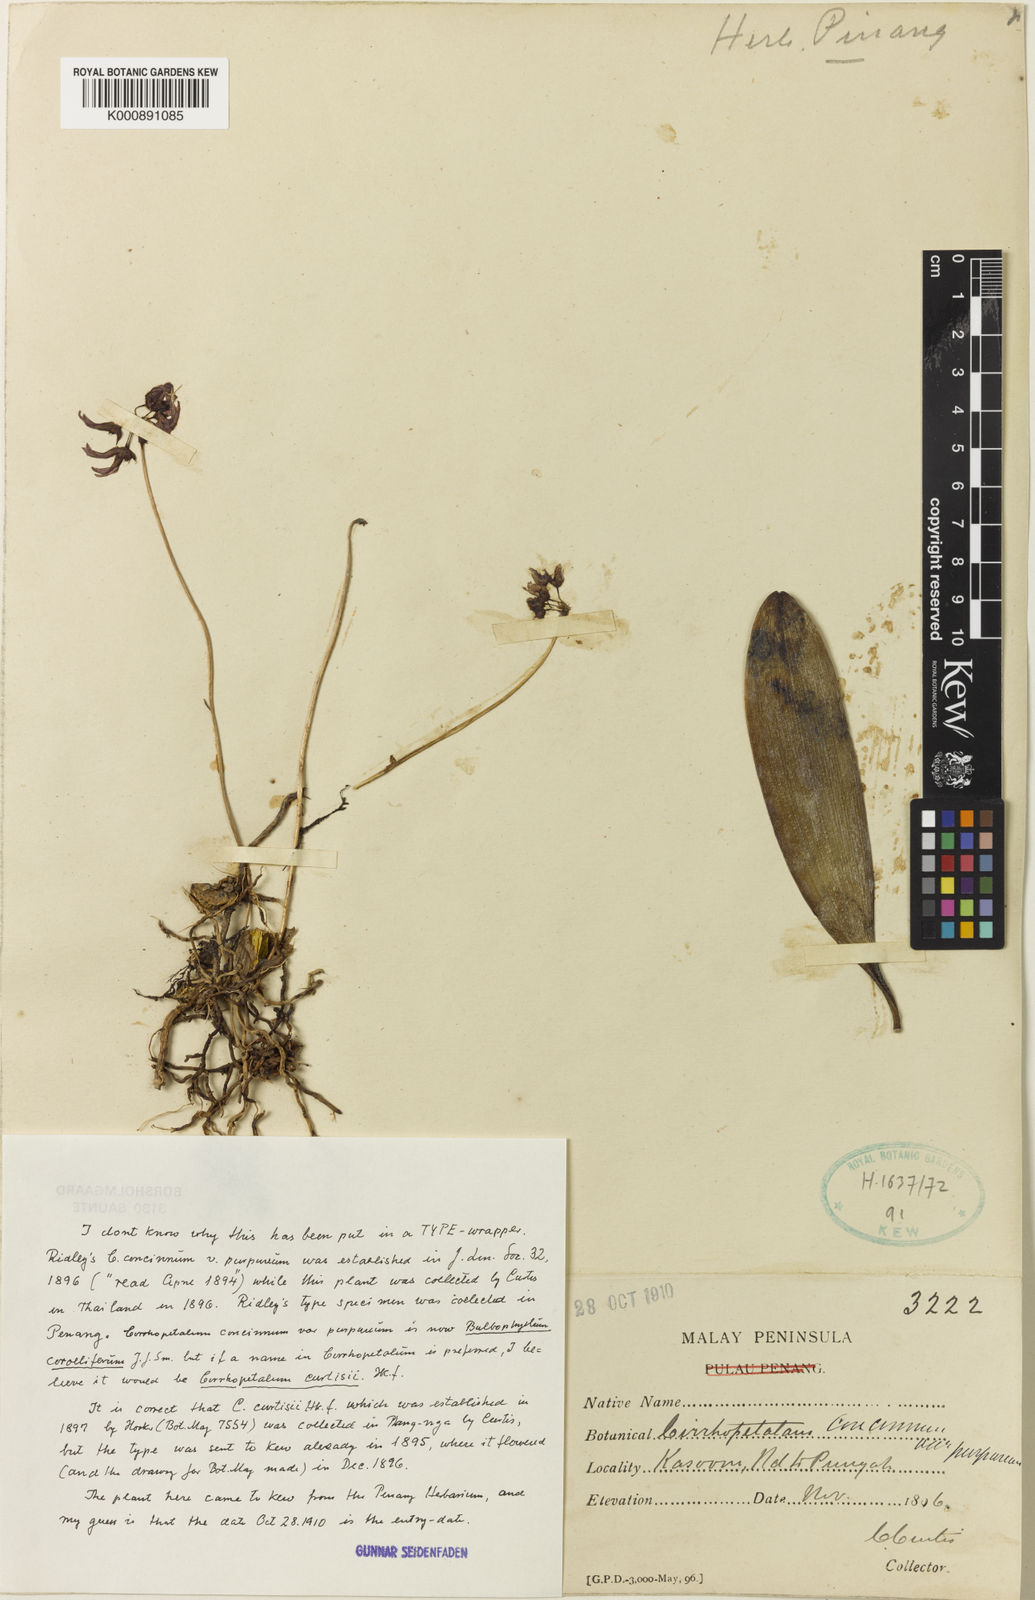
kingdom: Plantae
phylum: Tracheophyta
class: Liliopsida
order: Asparagales
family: Orchidaceae
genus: Bulbophyllum
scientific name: Bulbophyllum trigonopus
